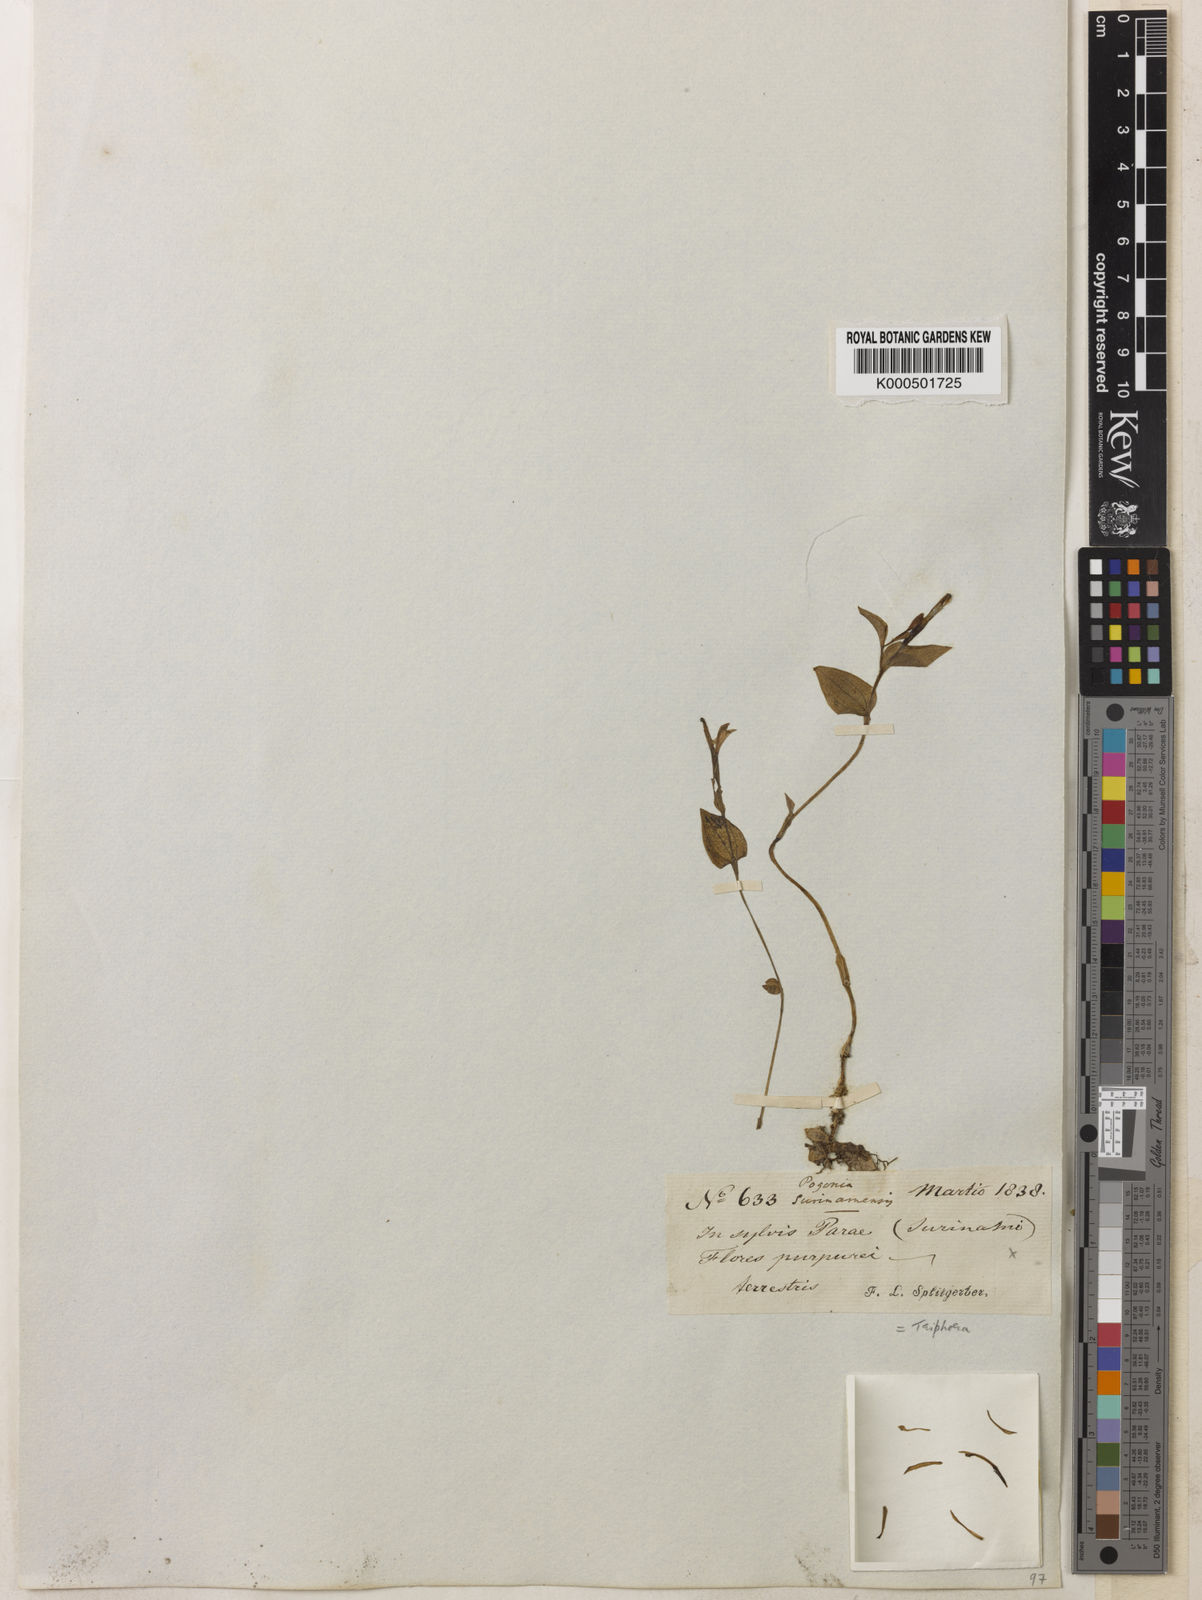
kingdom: Plantae
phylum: Tracheophyta
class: Liliopsida
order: Asparagales
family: Orchidaceae
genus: Triphora
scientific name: Triphora surinamensis
